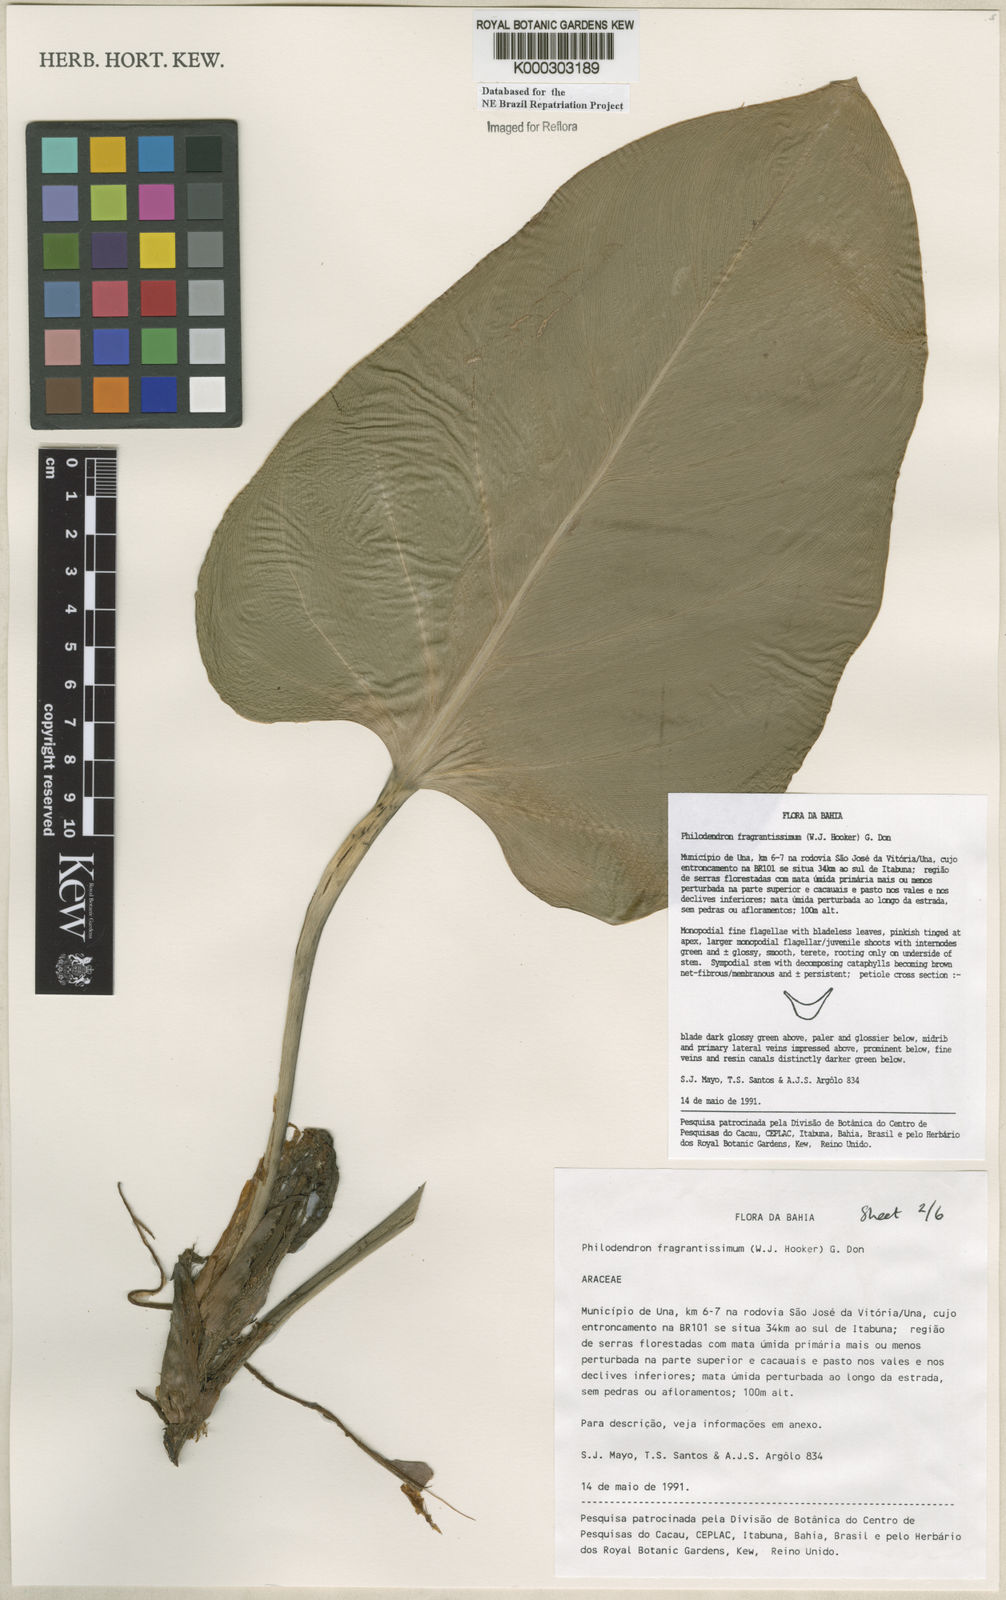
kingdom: Plantae
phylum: Tracheophyta
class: Liliopsida
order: Alismatales
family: Araceae
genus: Philodendron
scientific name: Philodendron fragrantissimum
